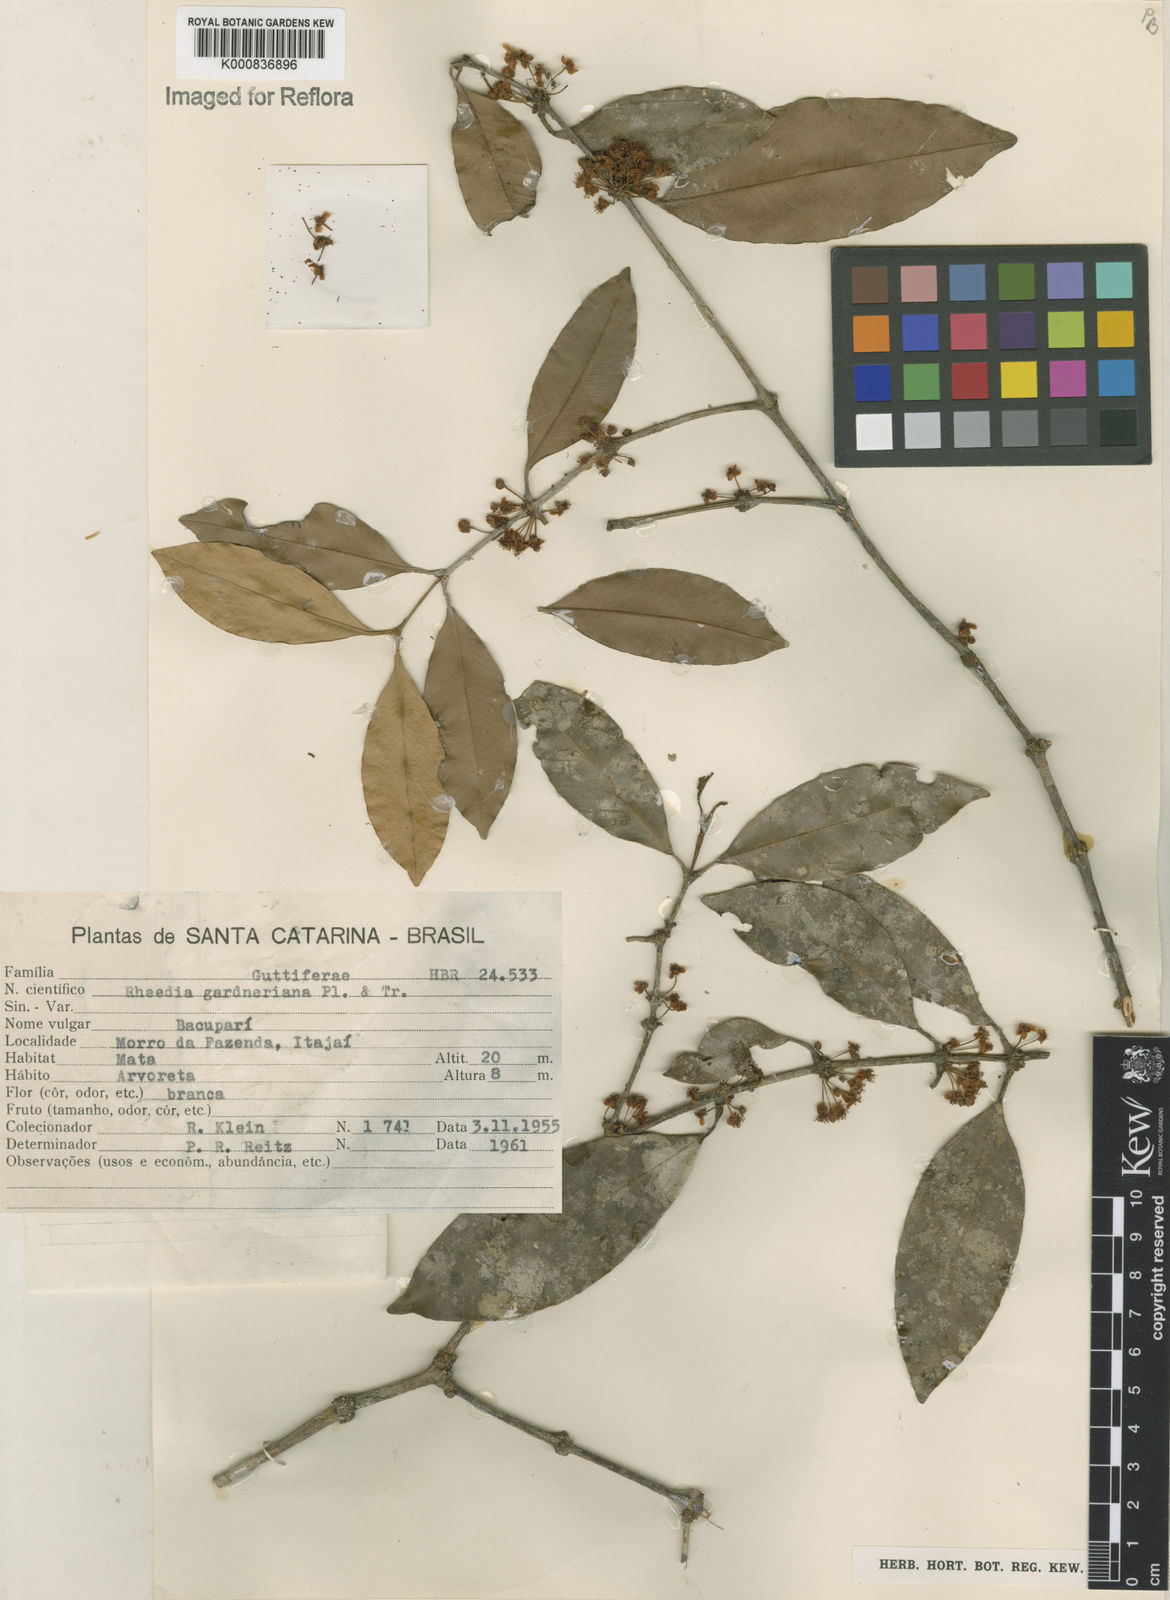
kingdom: Plantae
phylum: Tracheophyta
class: Magnoliopsida
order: Malpighiales
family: Clusiaceae
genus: Garcinia
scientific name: Garcinia gardneriana
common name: Achacha
